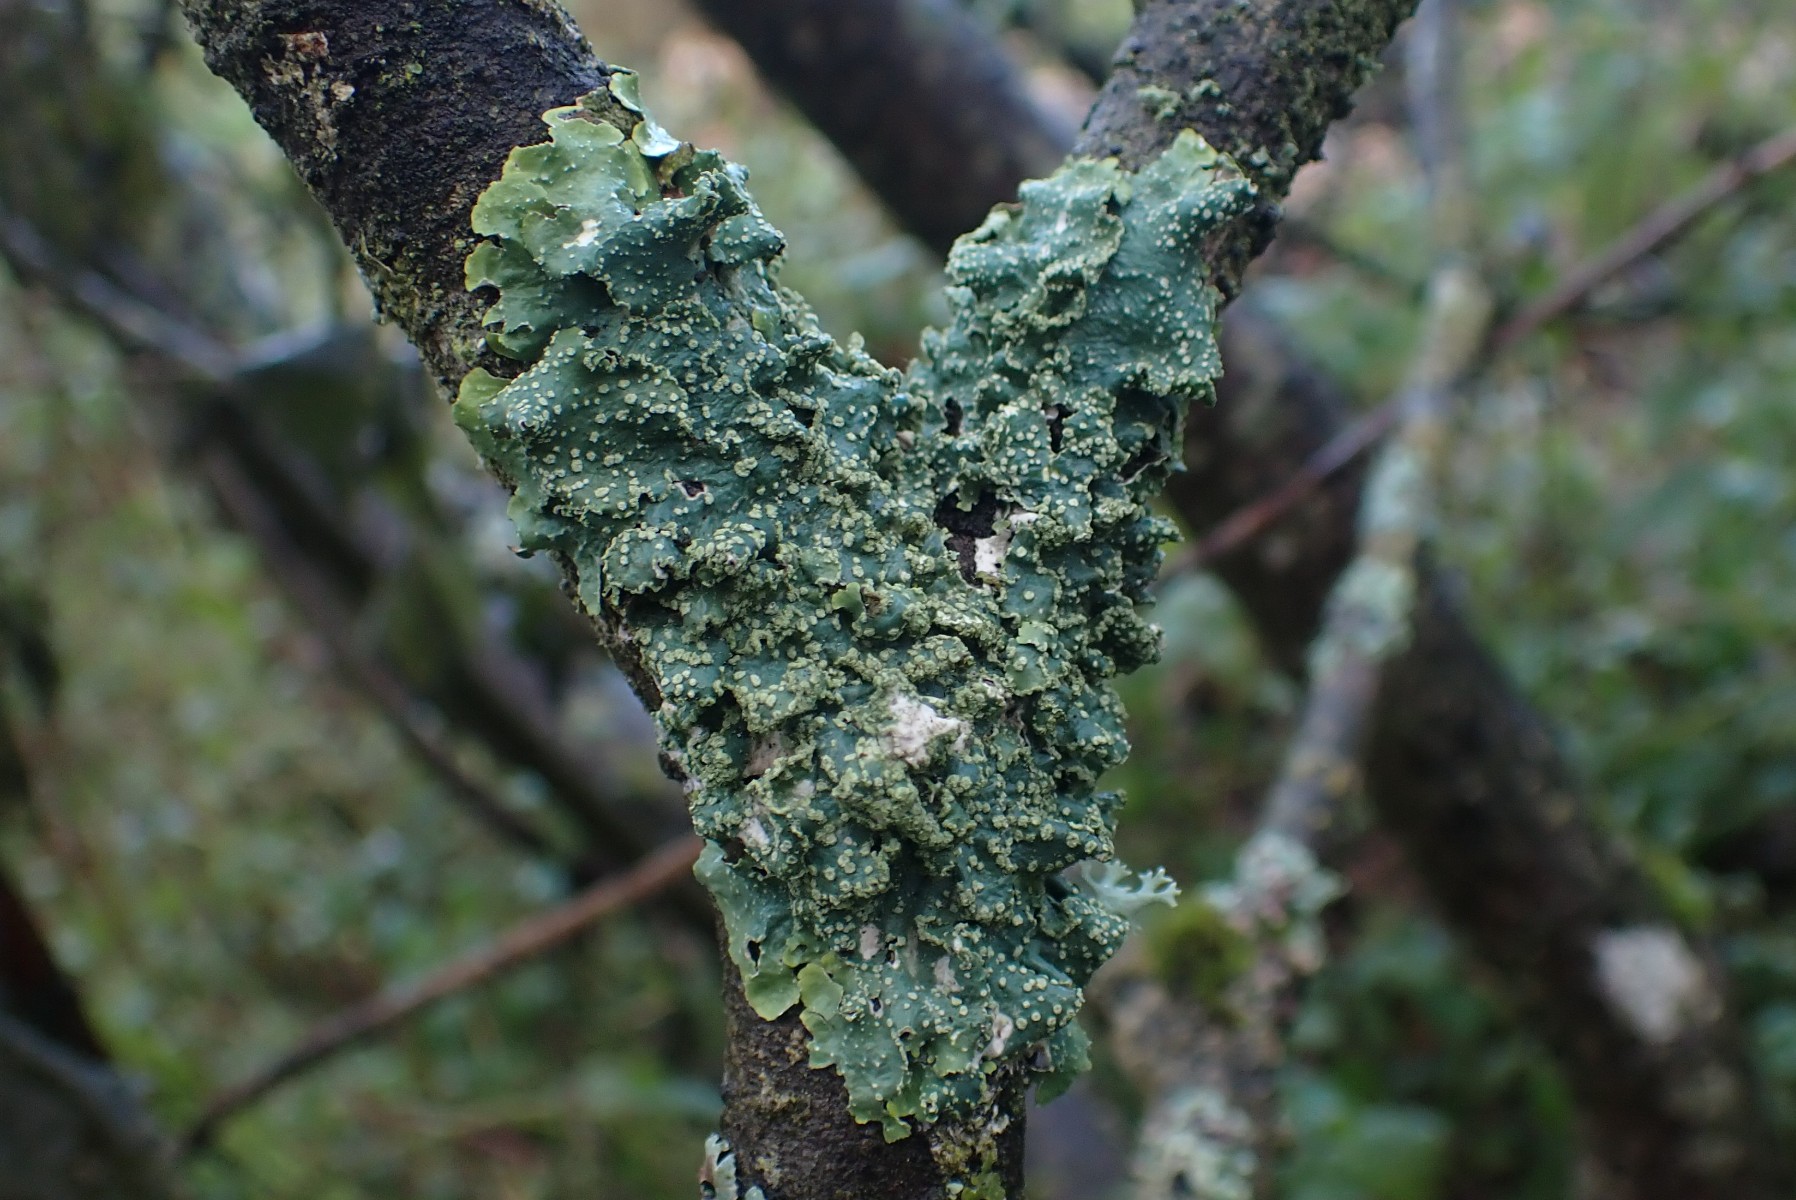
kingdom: Fungi
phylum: Ascomycota
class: Lecanoromycetes
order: Lecanorales
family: Parmeliaceae
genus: Punctelia
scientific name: Punctelia subrudecta
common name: punkt-skållav
